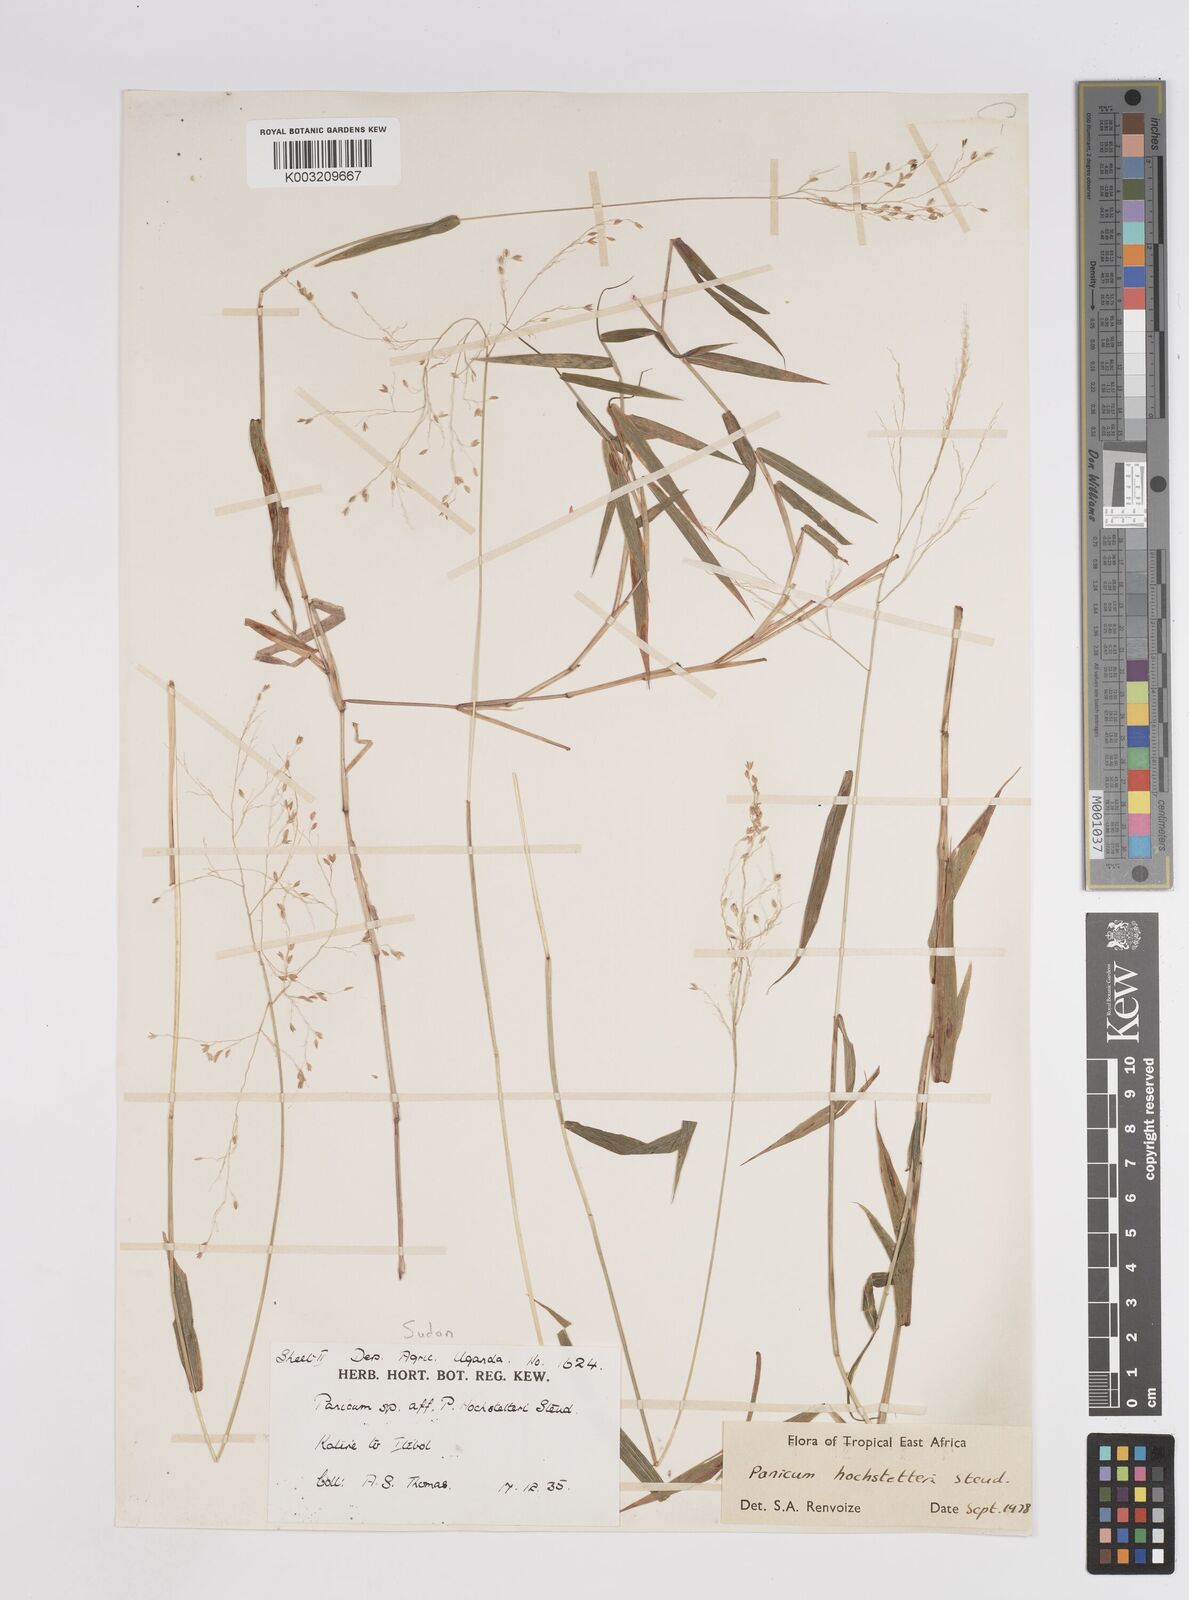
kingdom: Plantae
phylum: Tracheophyta
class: Liliopsida
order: Poales
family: Poaceae
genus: Panicum
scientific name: Panicum hochstetteri
